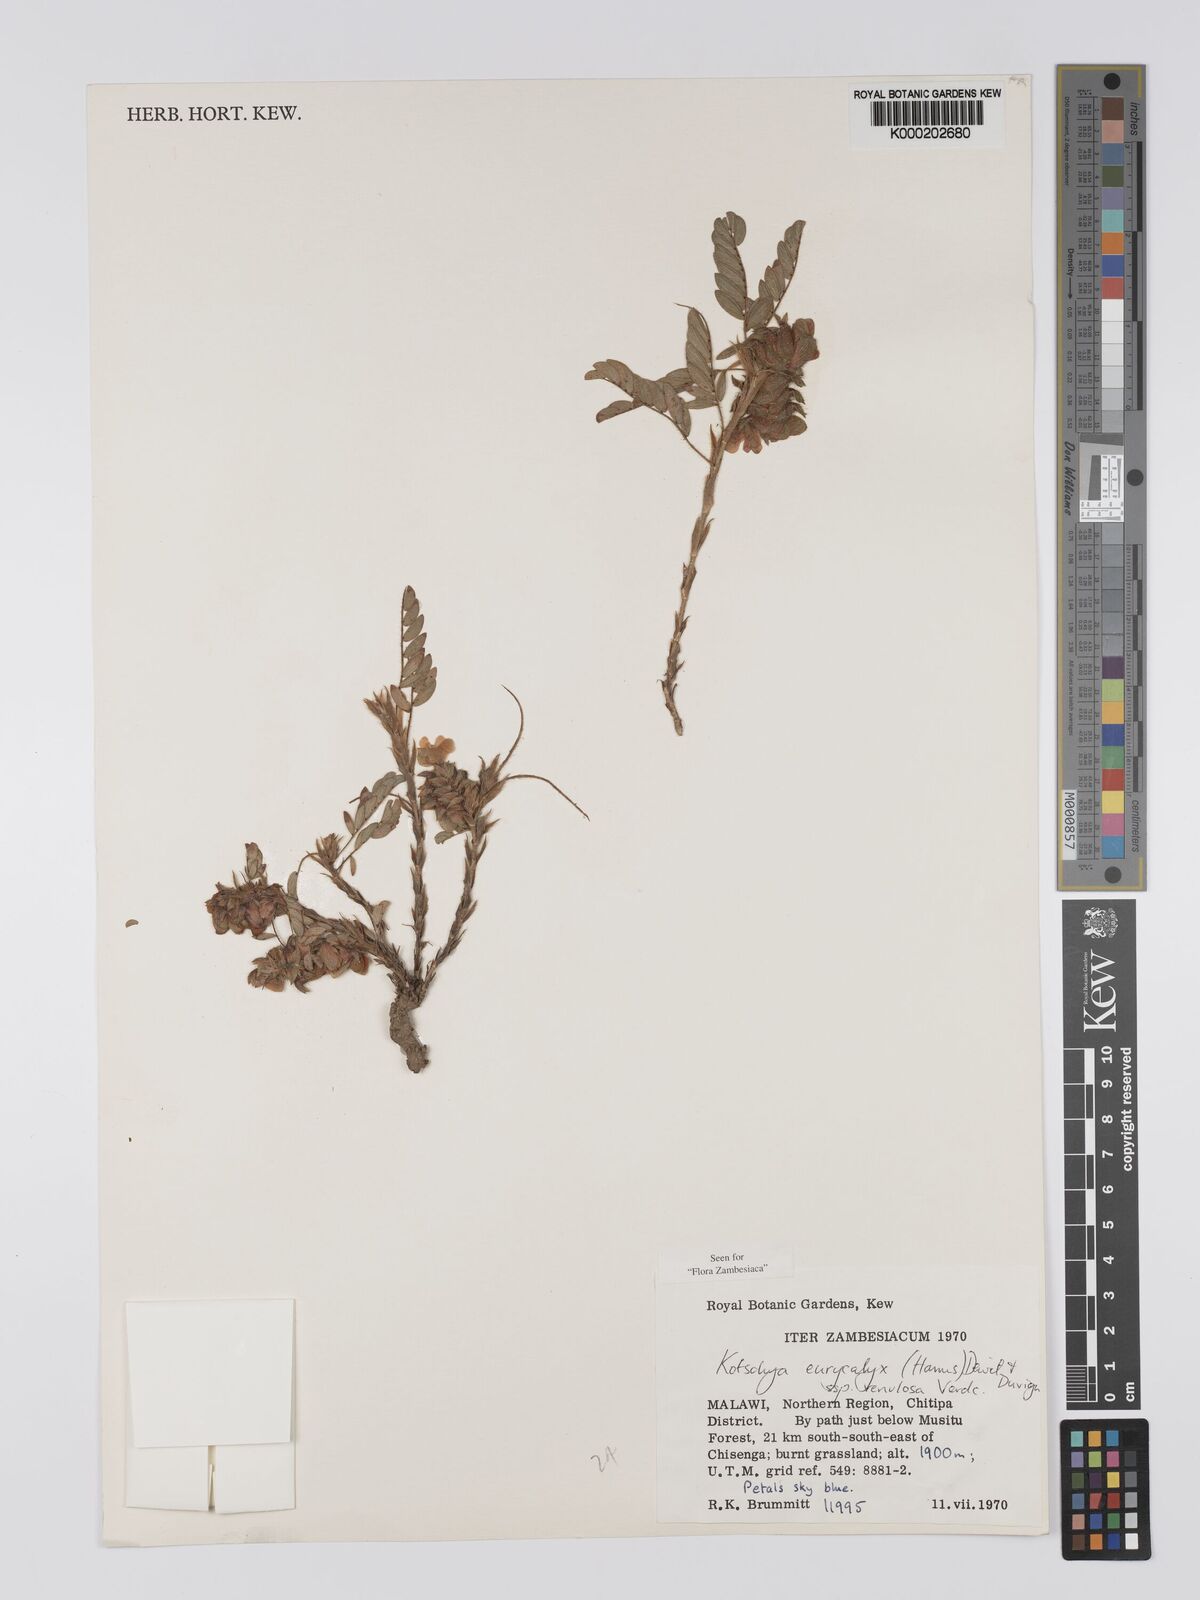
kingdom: Plantae
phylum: Tracheophyta
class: Magnoliopsida
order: Fabales
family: Fabaceae
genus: Kotschya
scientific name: Kotschya eurycalyx
